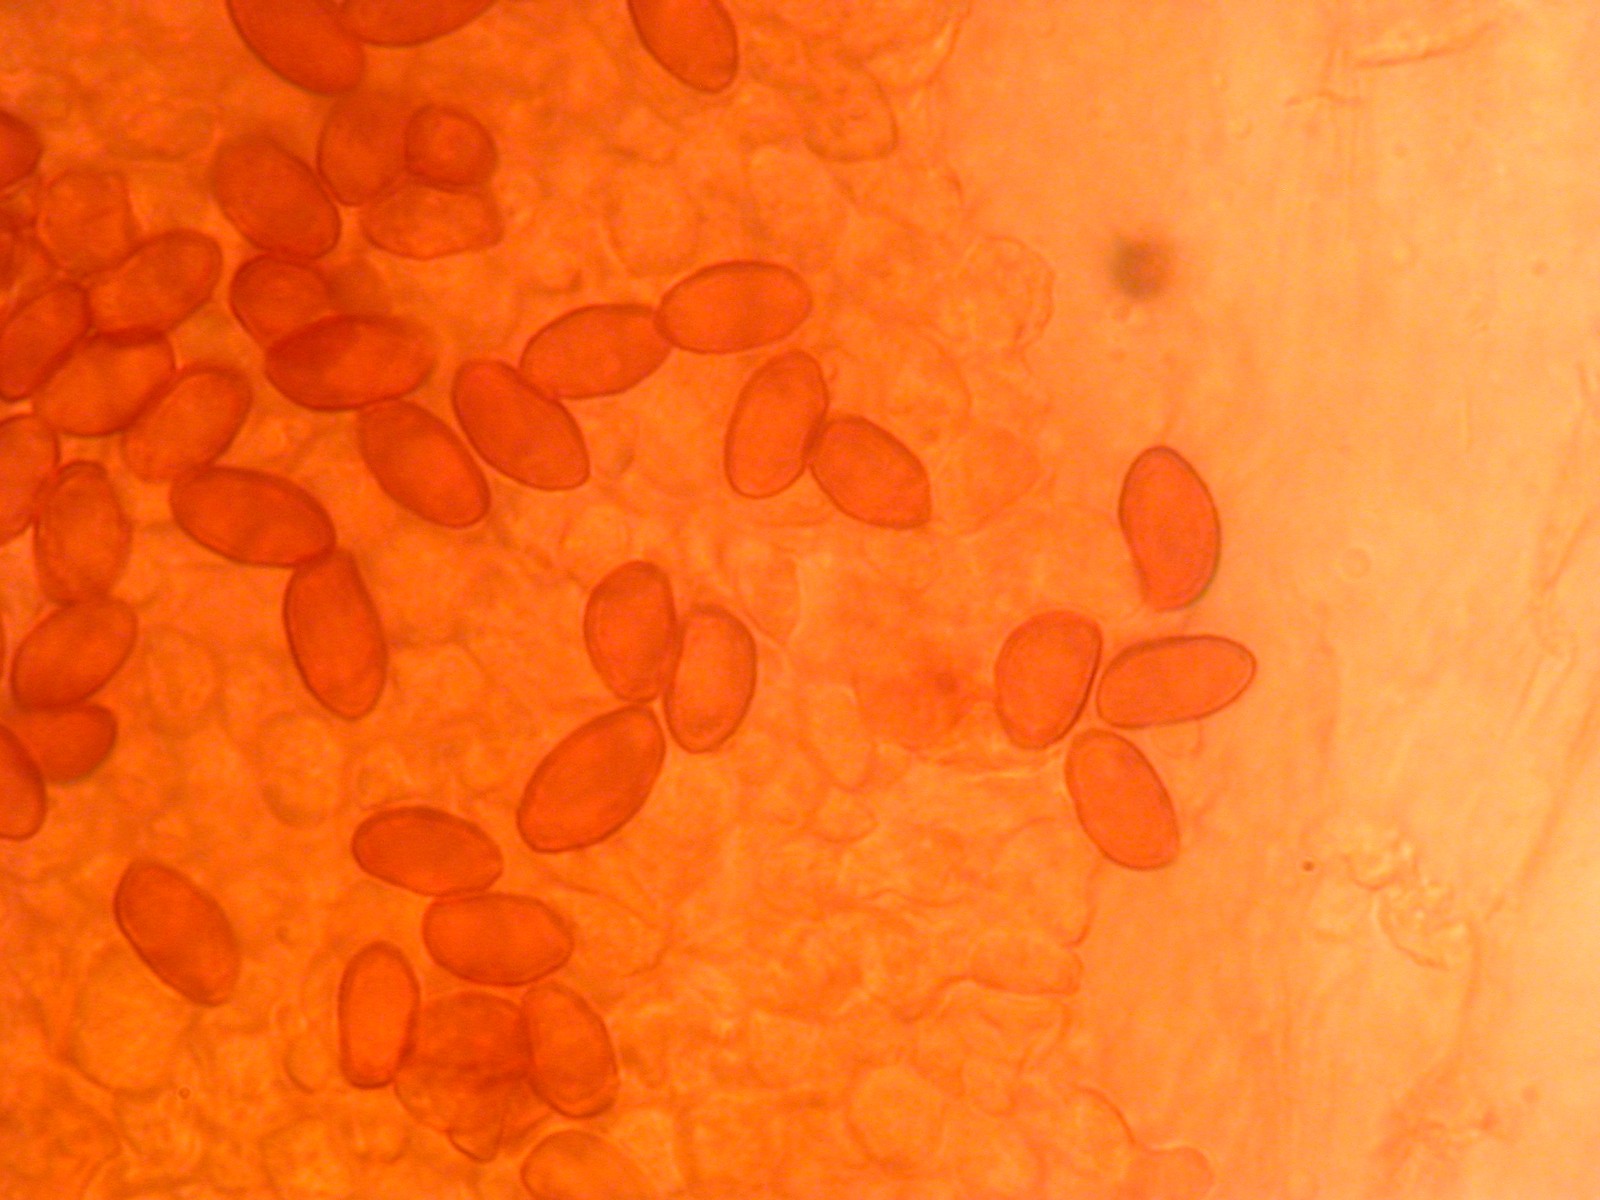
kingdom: Fungi
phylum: Basidiomycota
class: Agaricomycetes
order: Agaricales
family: Cortinariaceae
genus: Cortinarius
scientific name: Cortinarius
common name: ræve-slørhat
